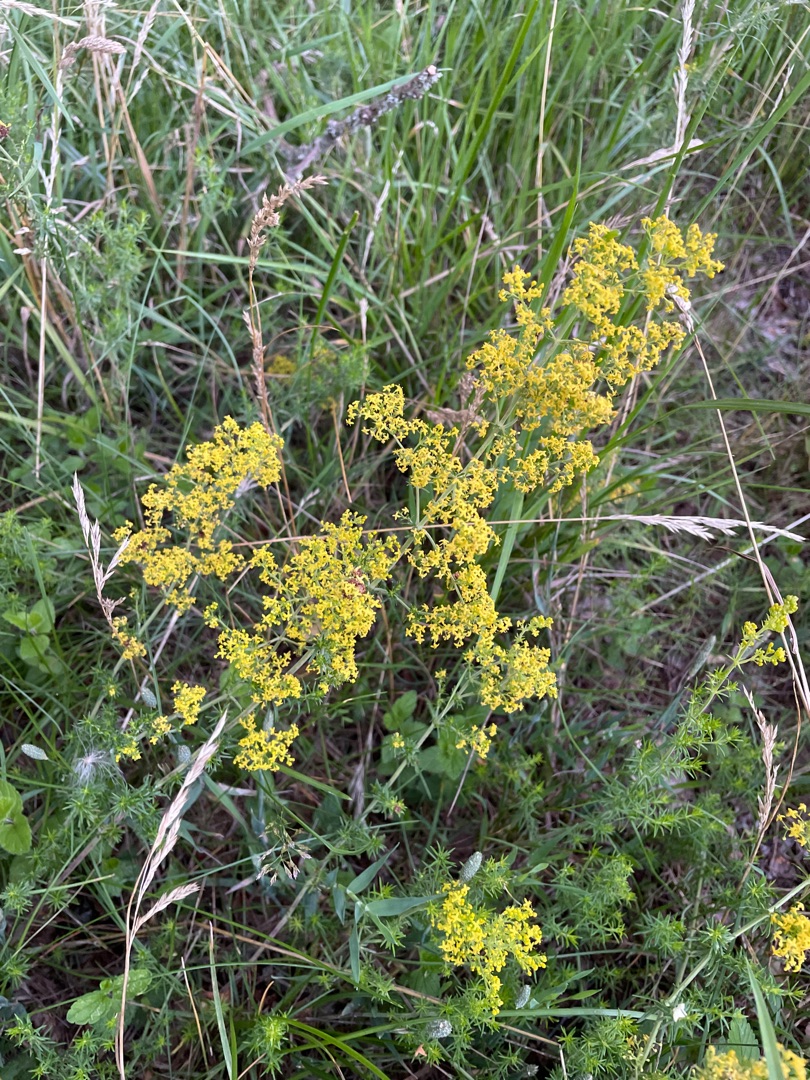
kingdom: Plantae
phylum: Tracheophyta
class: Magnoliopsida
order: Gentianales
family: Rubiaceae
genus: Galium
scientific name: Galium verum
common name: Gul snerre
